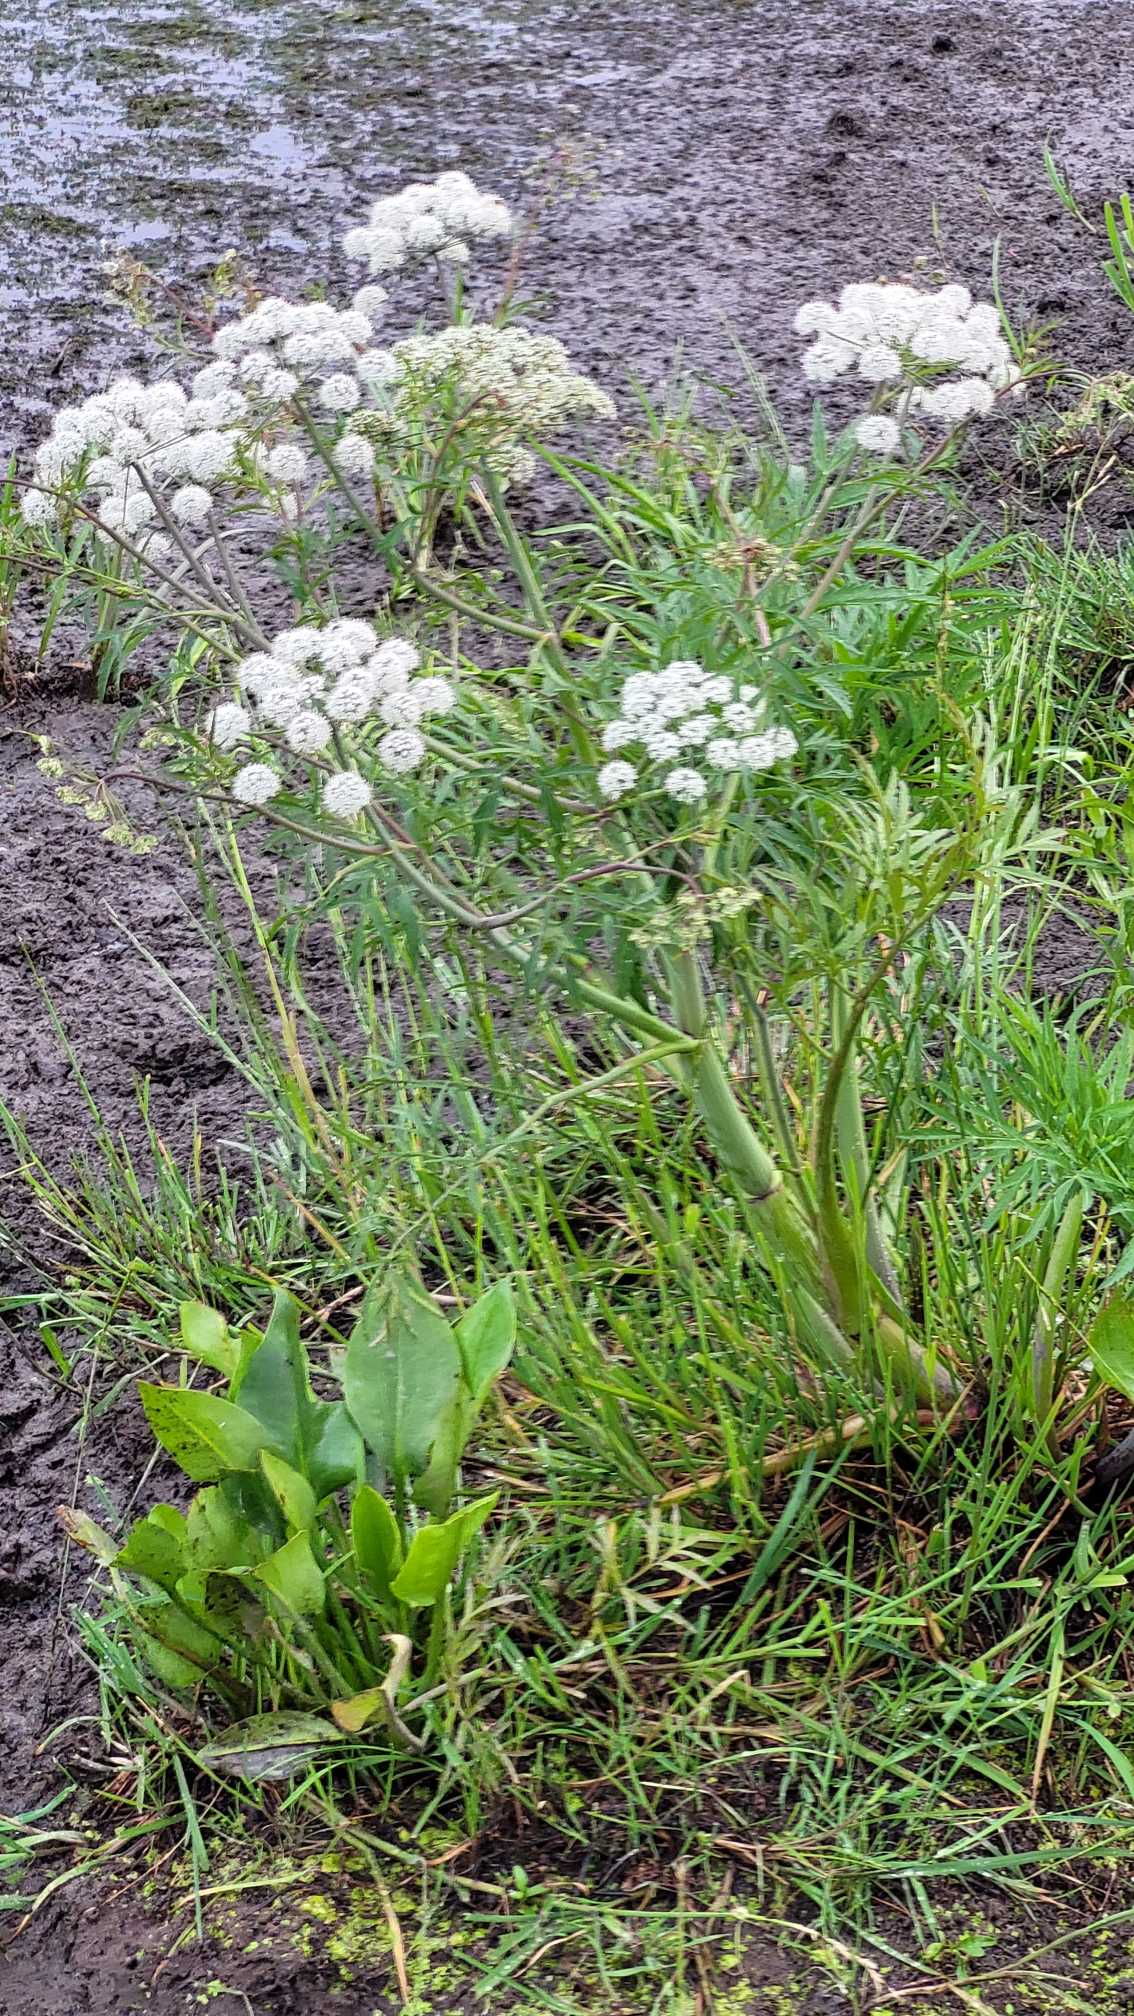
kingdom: Plantae
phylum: Tracheophyta
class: Magnoliopsida
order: Apiales
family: Apiaceae
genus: Cicuta
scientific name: Cicuta virosa
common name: Gifttyde
